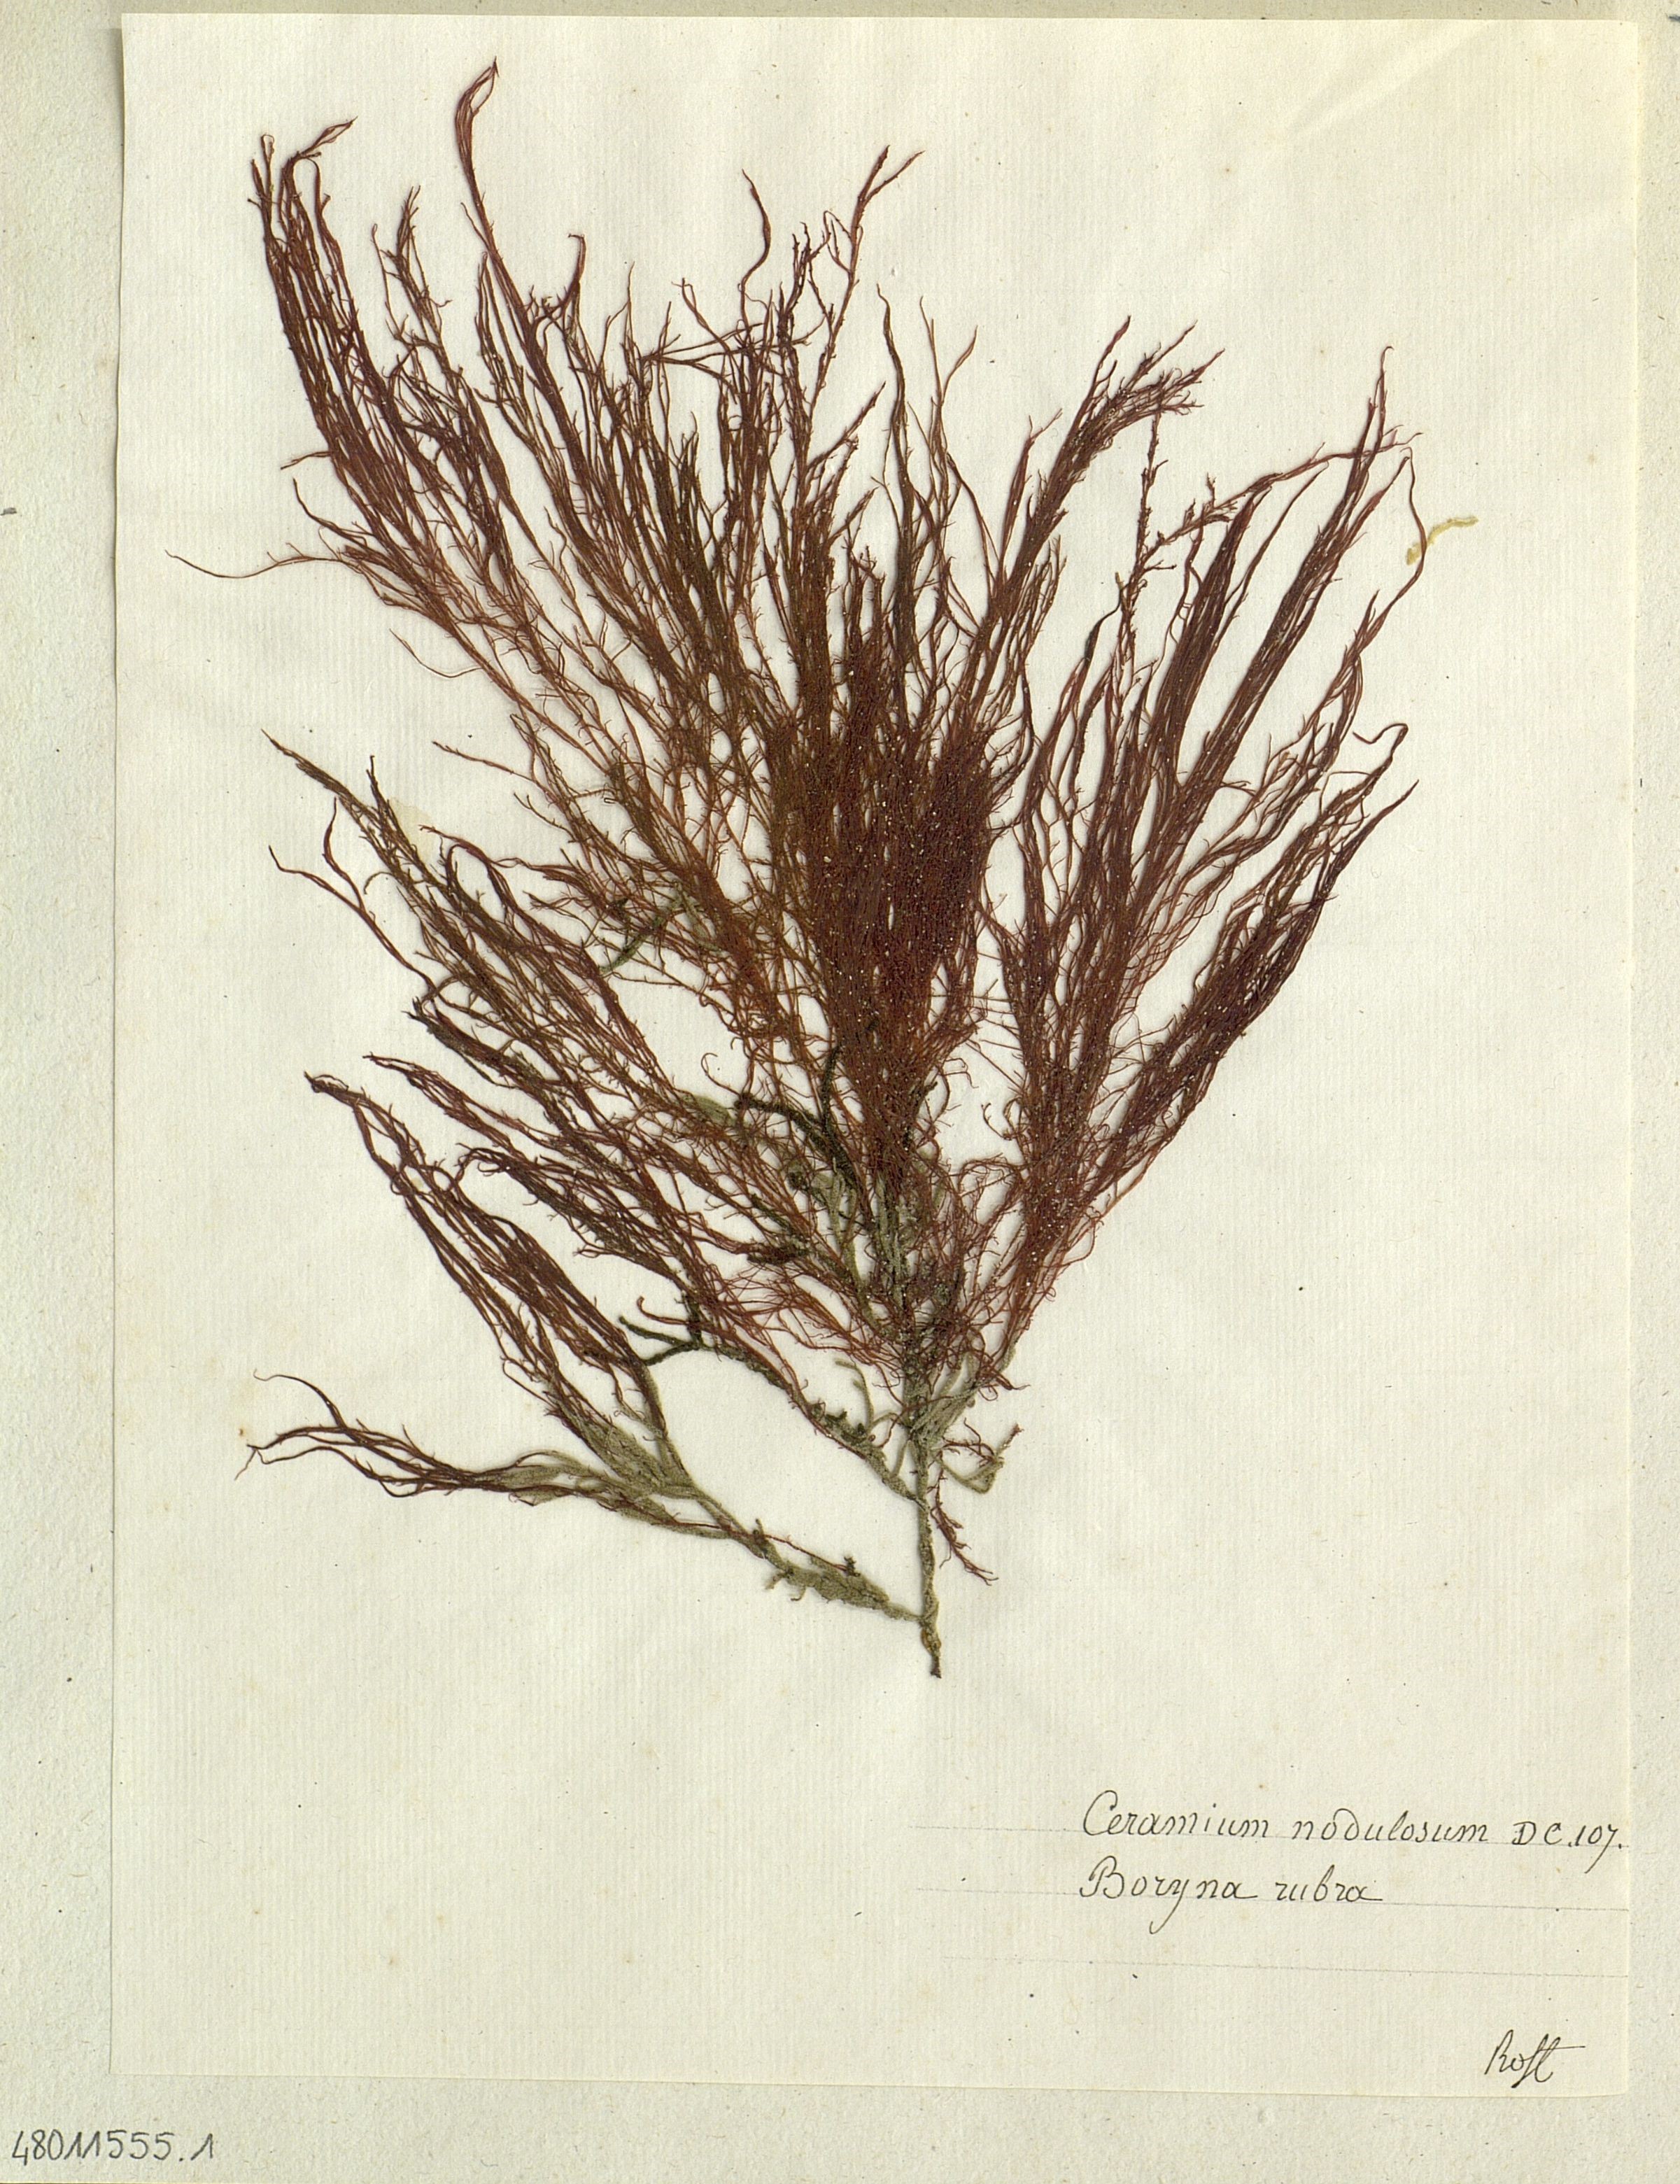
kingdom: Plantae
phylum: Rhodophyta
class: Florideophyceae
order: Ceramiales
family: Ceramiaceae
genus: Ceramium
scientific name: Ceramium virgatum
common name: Red hornweed
